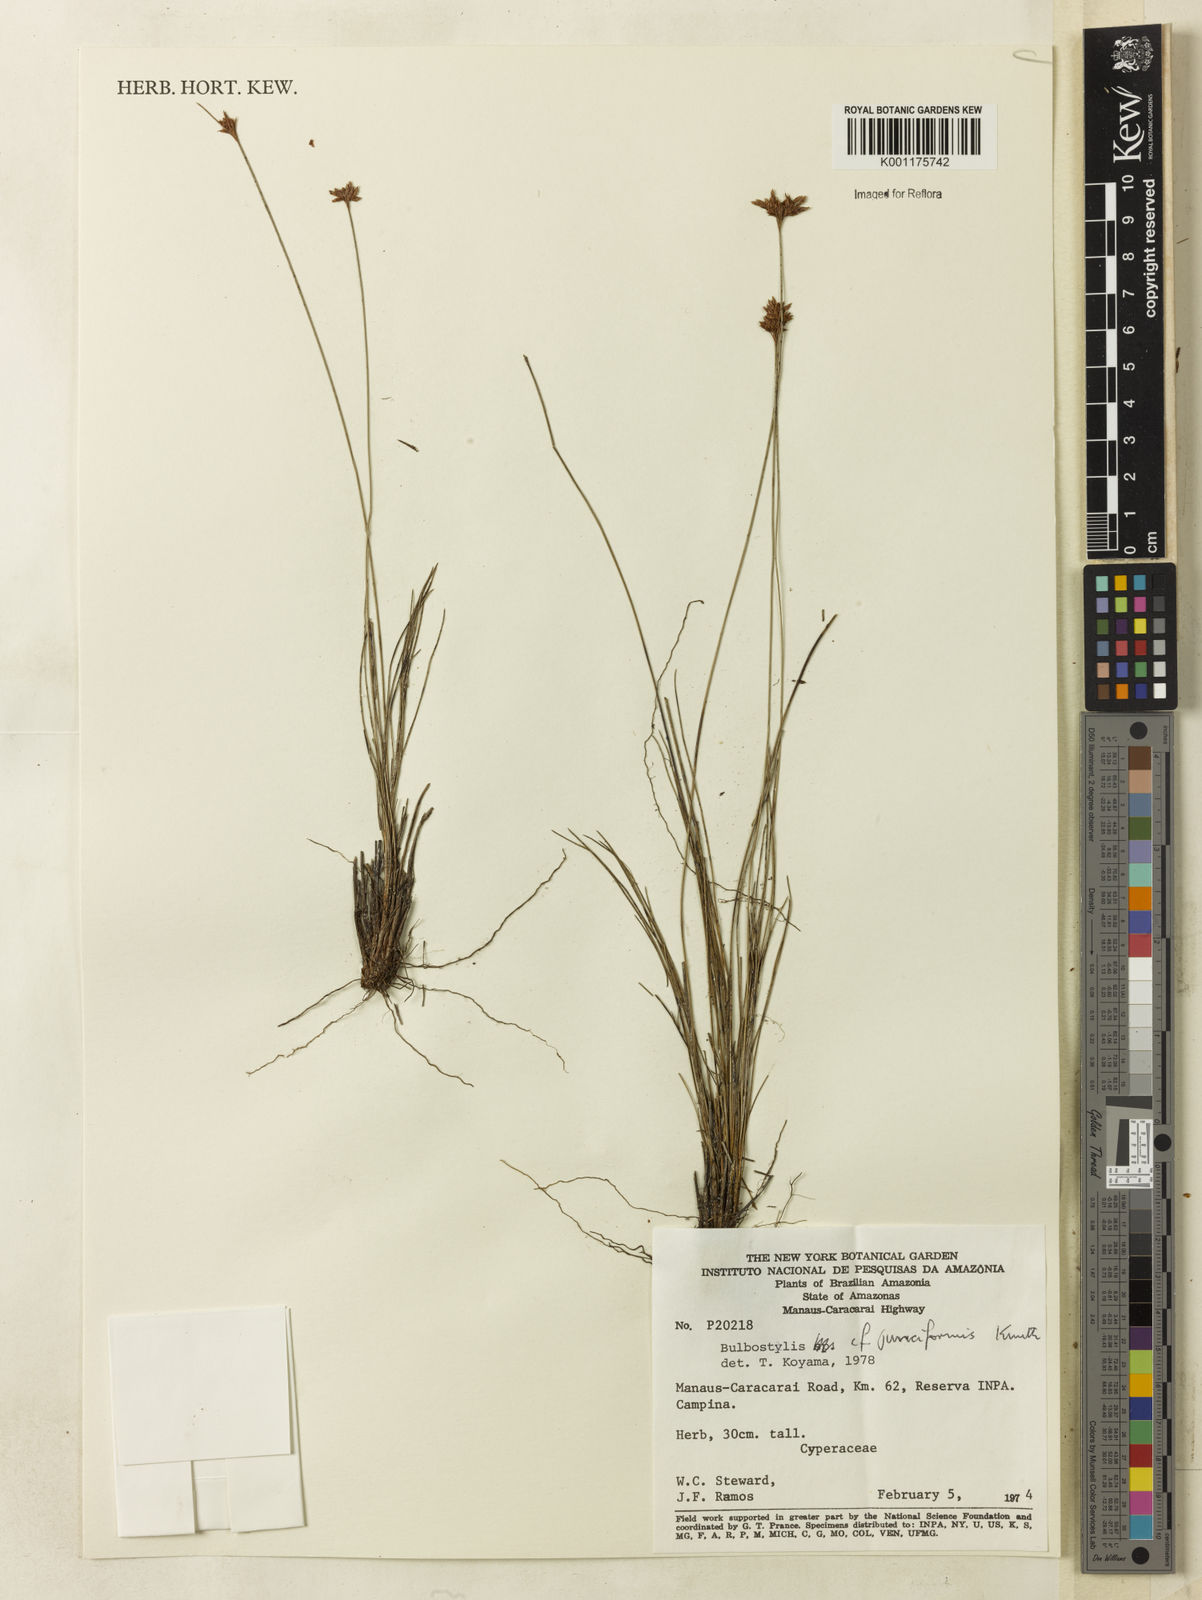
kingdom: Plantae
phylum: Tracheophyta
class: Liliopsida
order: Poales
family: Cyperaceae
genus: Bulbostylis
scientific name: Bulbostylis junciformis
